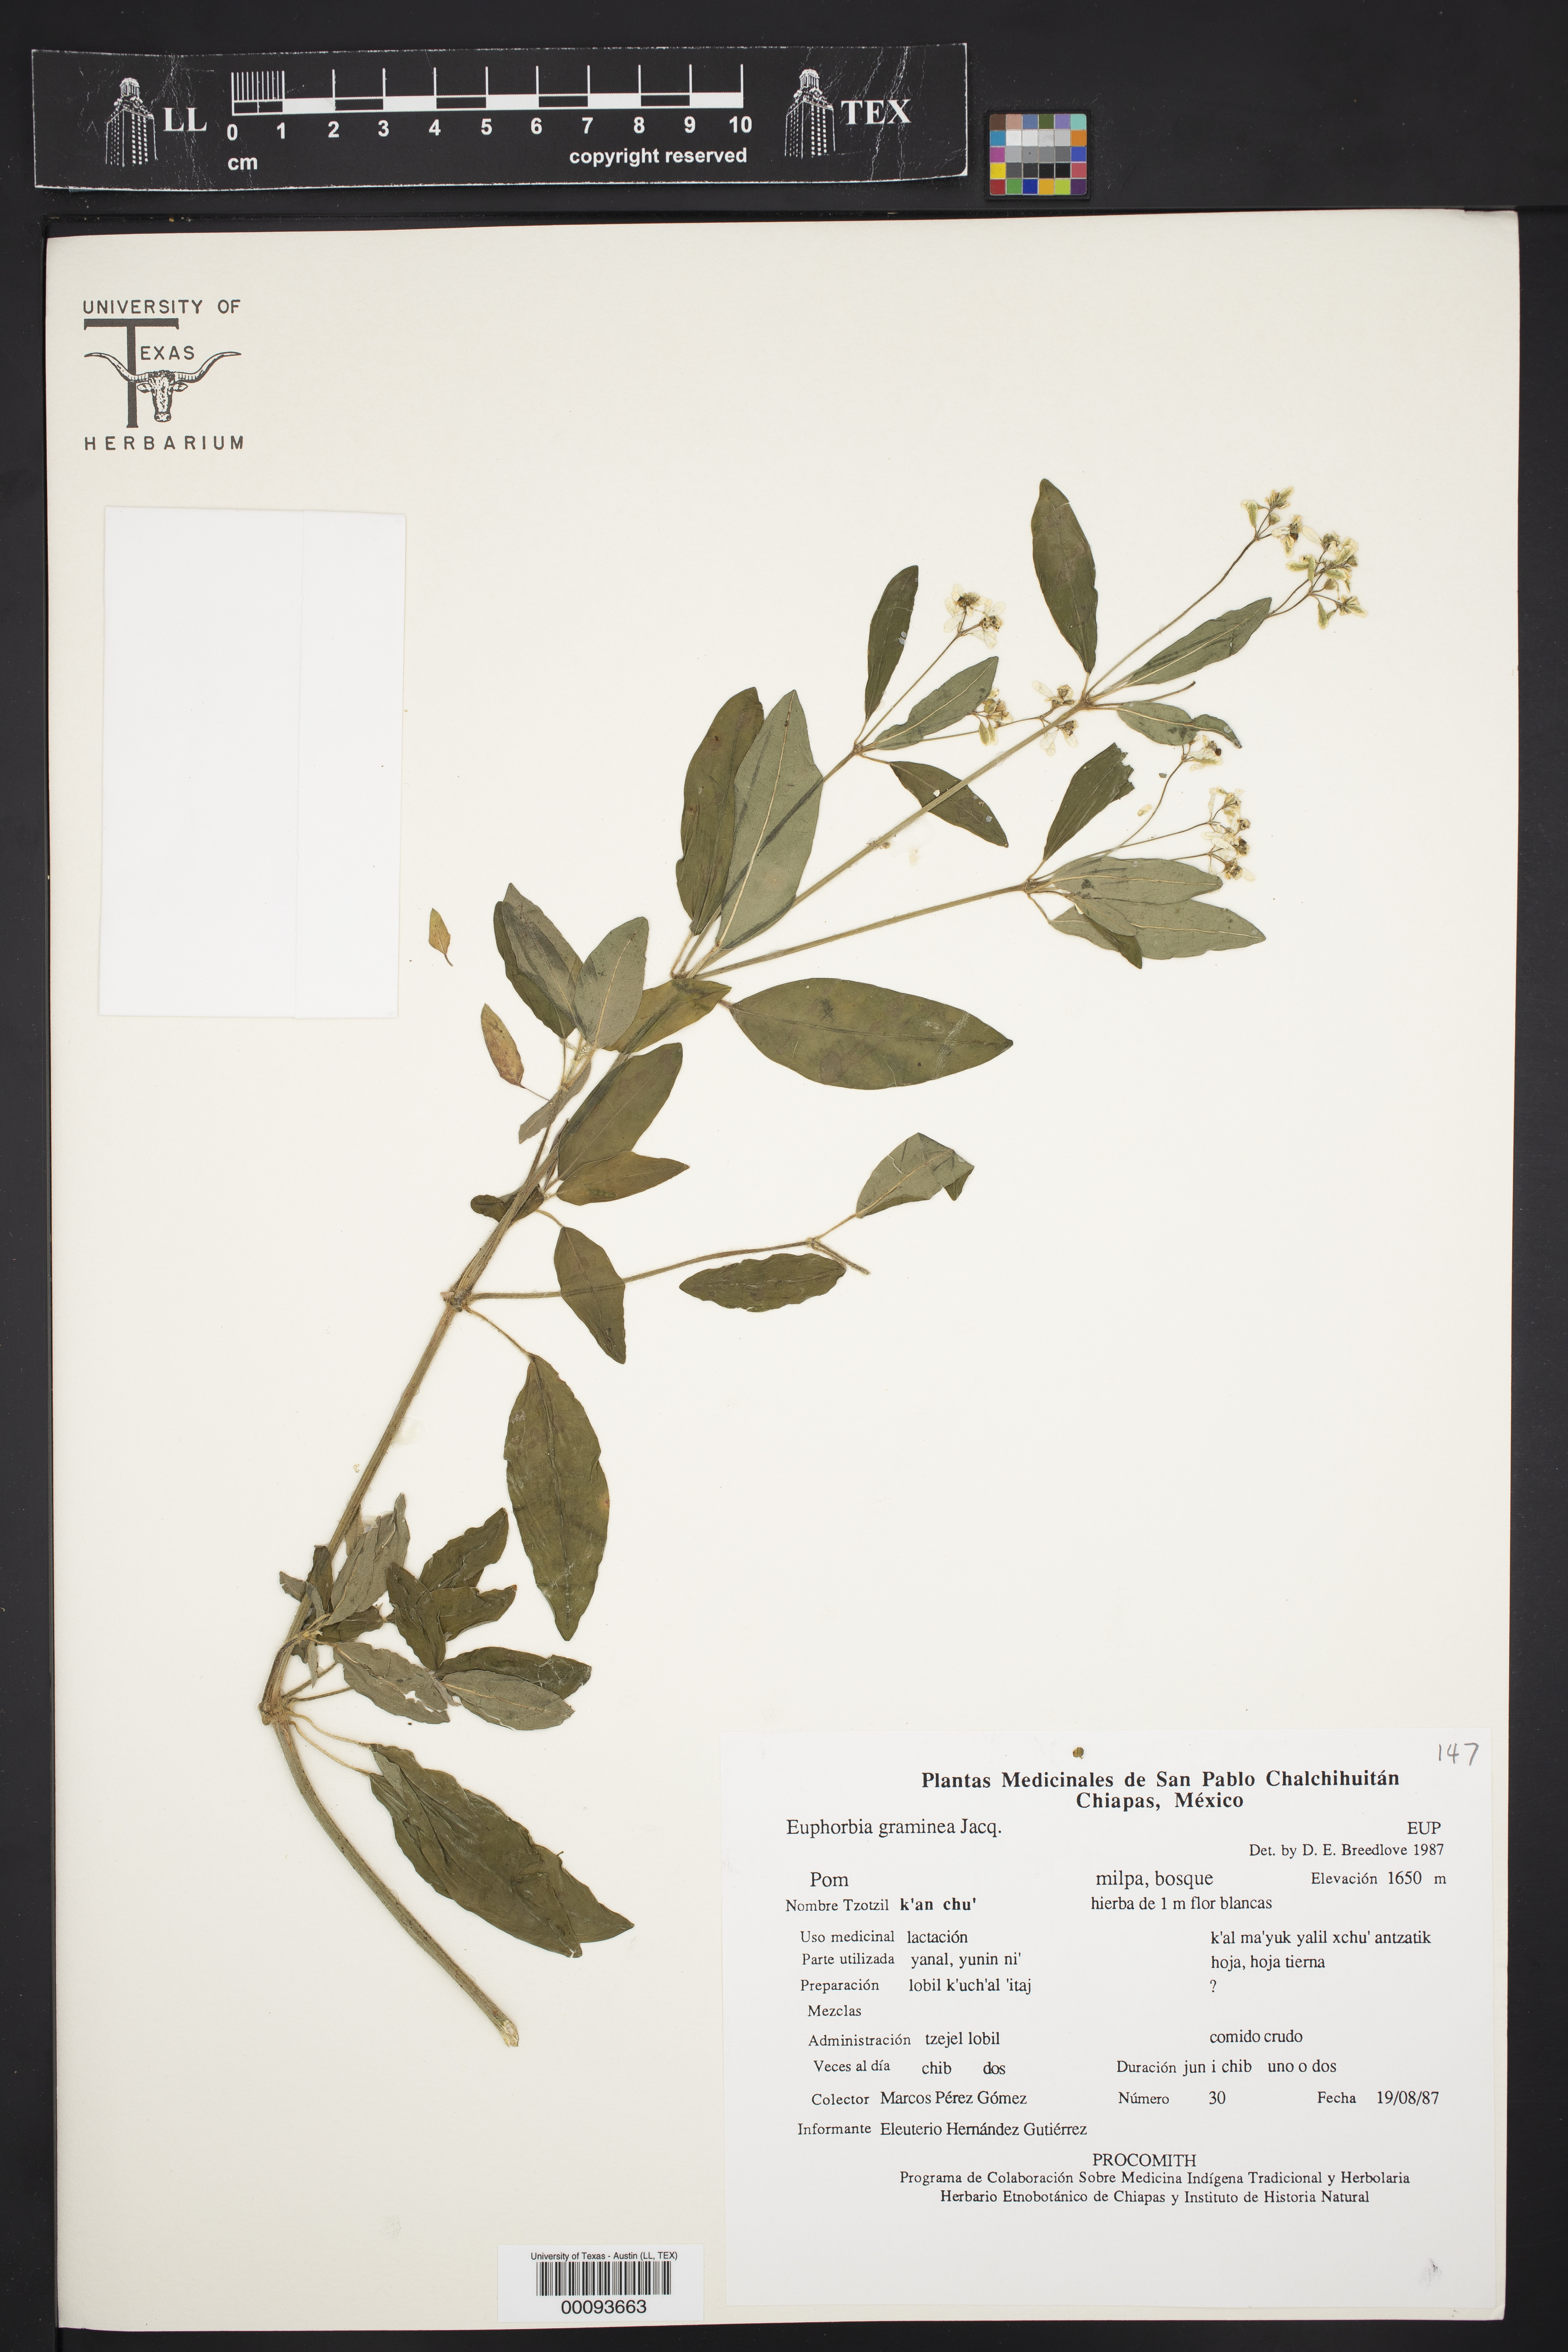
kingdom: Plantae
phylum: Tracheophyta
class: Magnoliopsida
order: Malpighiales
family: Euphorbiaceae
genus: Euphorbia
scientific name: Euphorbia graminea
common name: Grassleaf spurge
